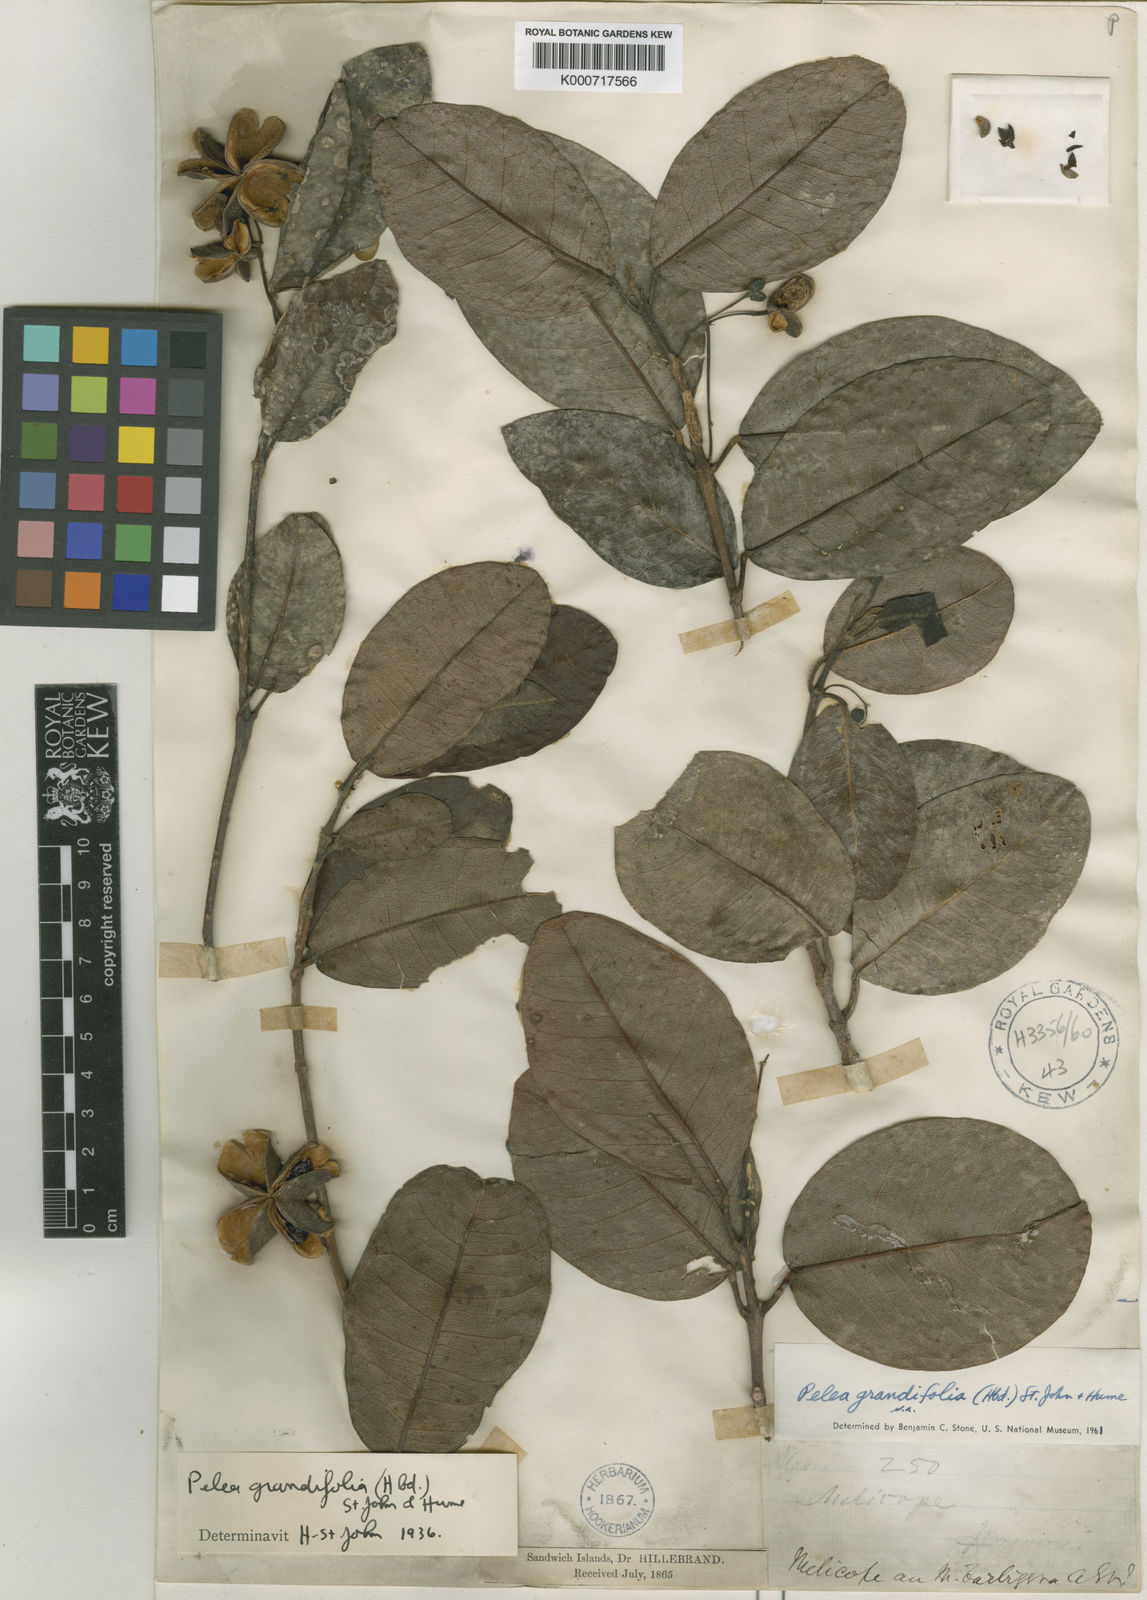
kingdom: Plantae
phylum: Tracheophyta
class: Magnoliopsida
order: Sapindales
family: Rutaceae
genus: Melicope
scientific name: Melicope volcanica
